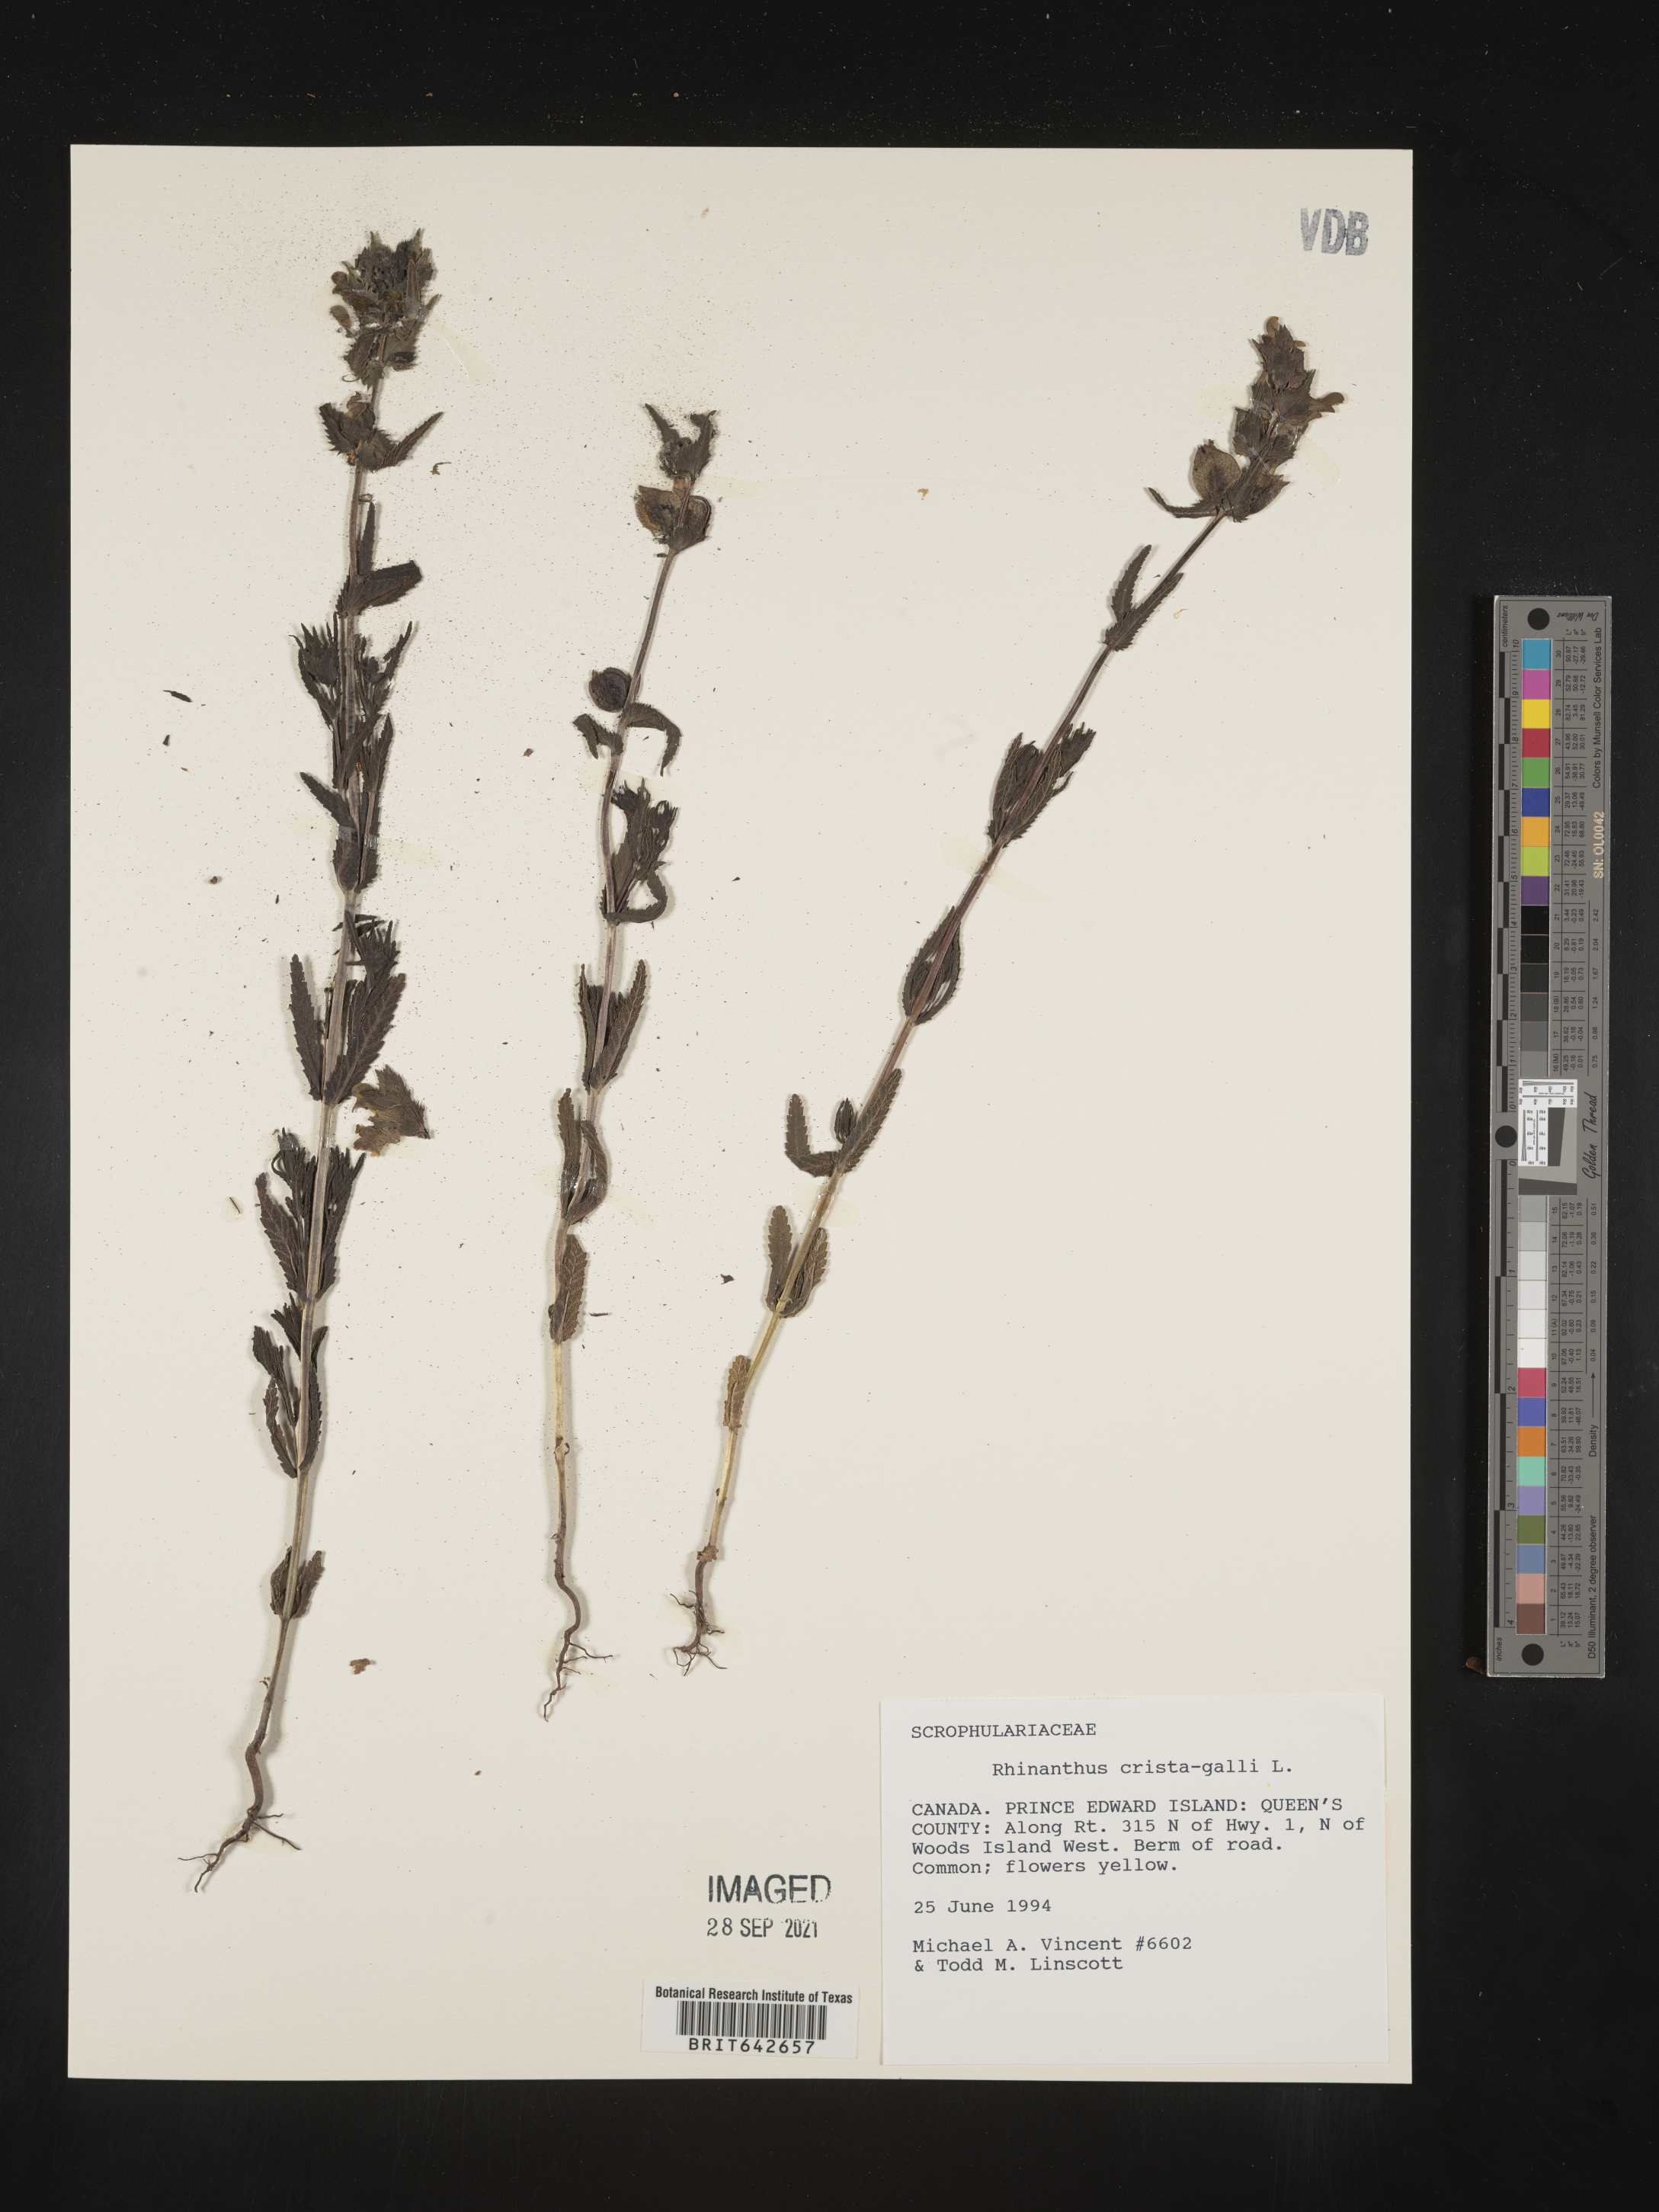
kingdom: Plantae
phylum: Tracheophyta
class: Magnoliopsida
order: Lamiales
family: Orobanchaceae
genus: Rhinanthus
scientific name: Rhinanthus
